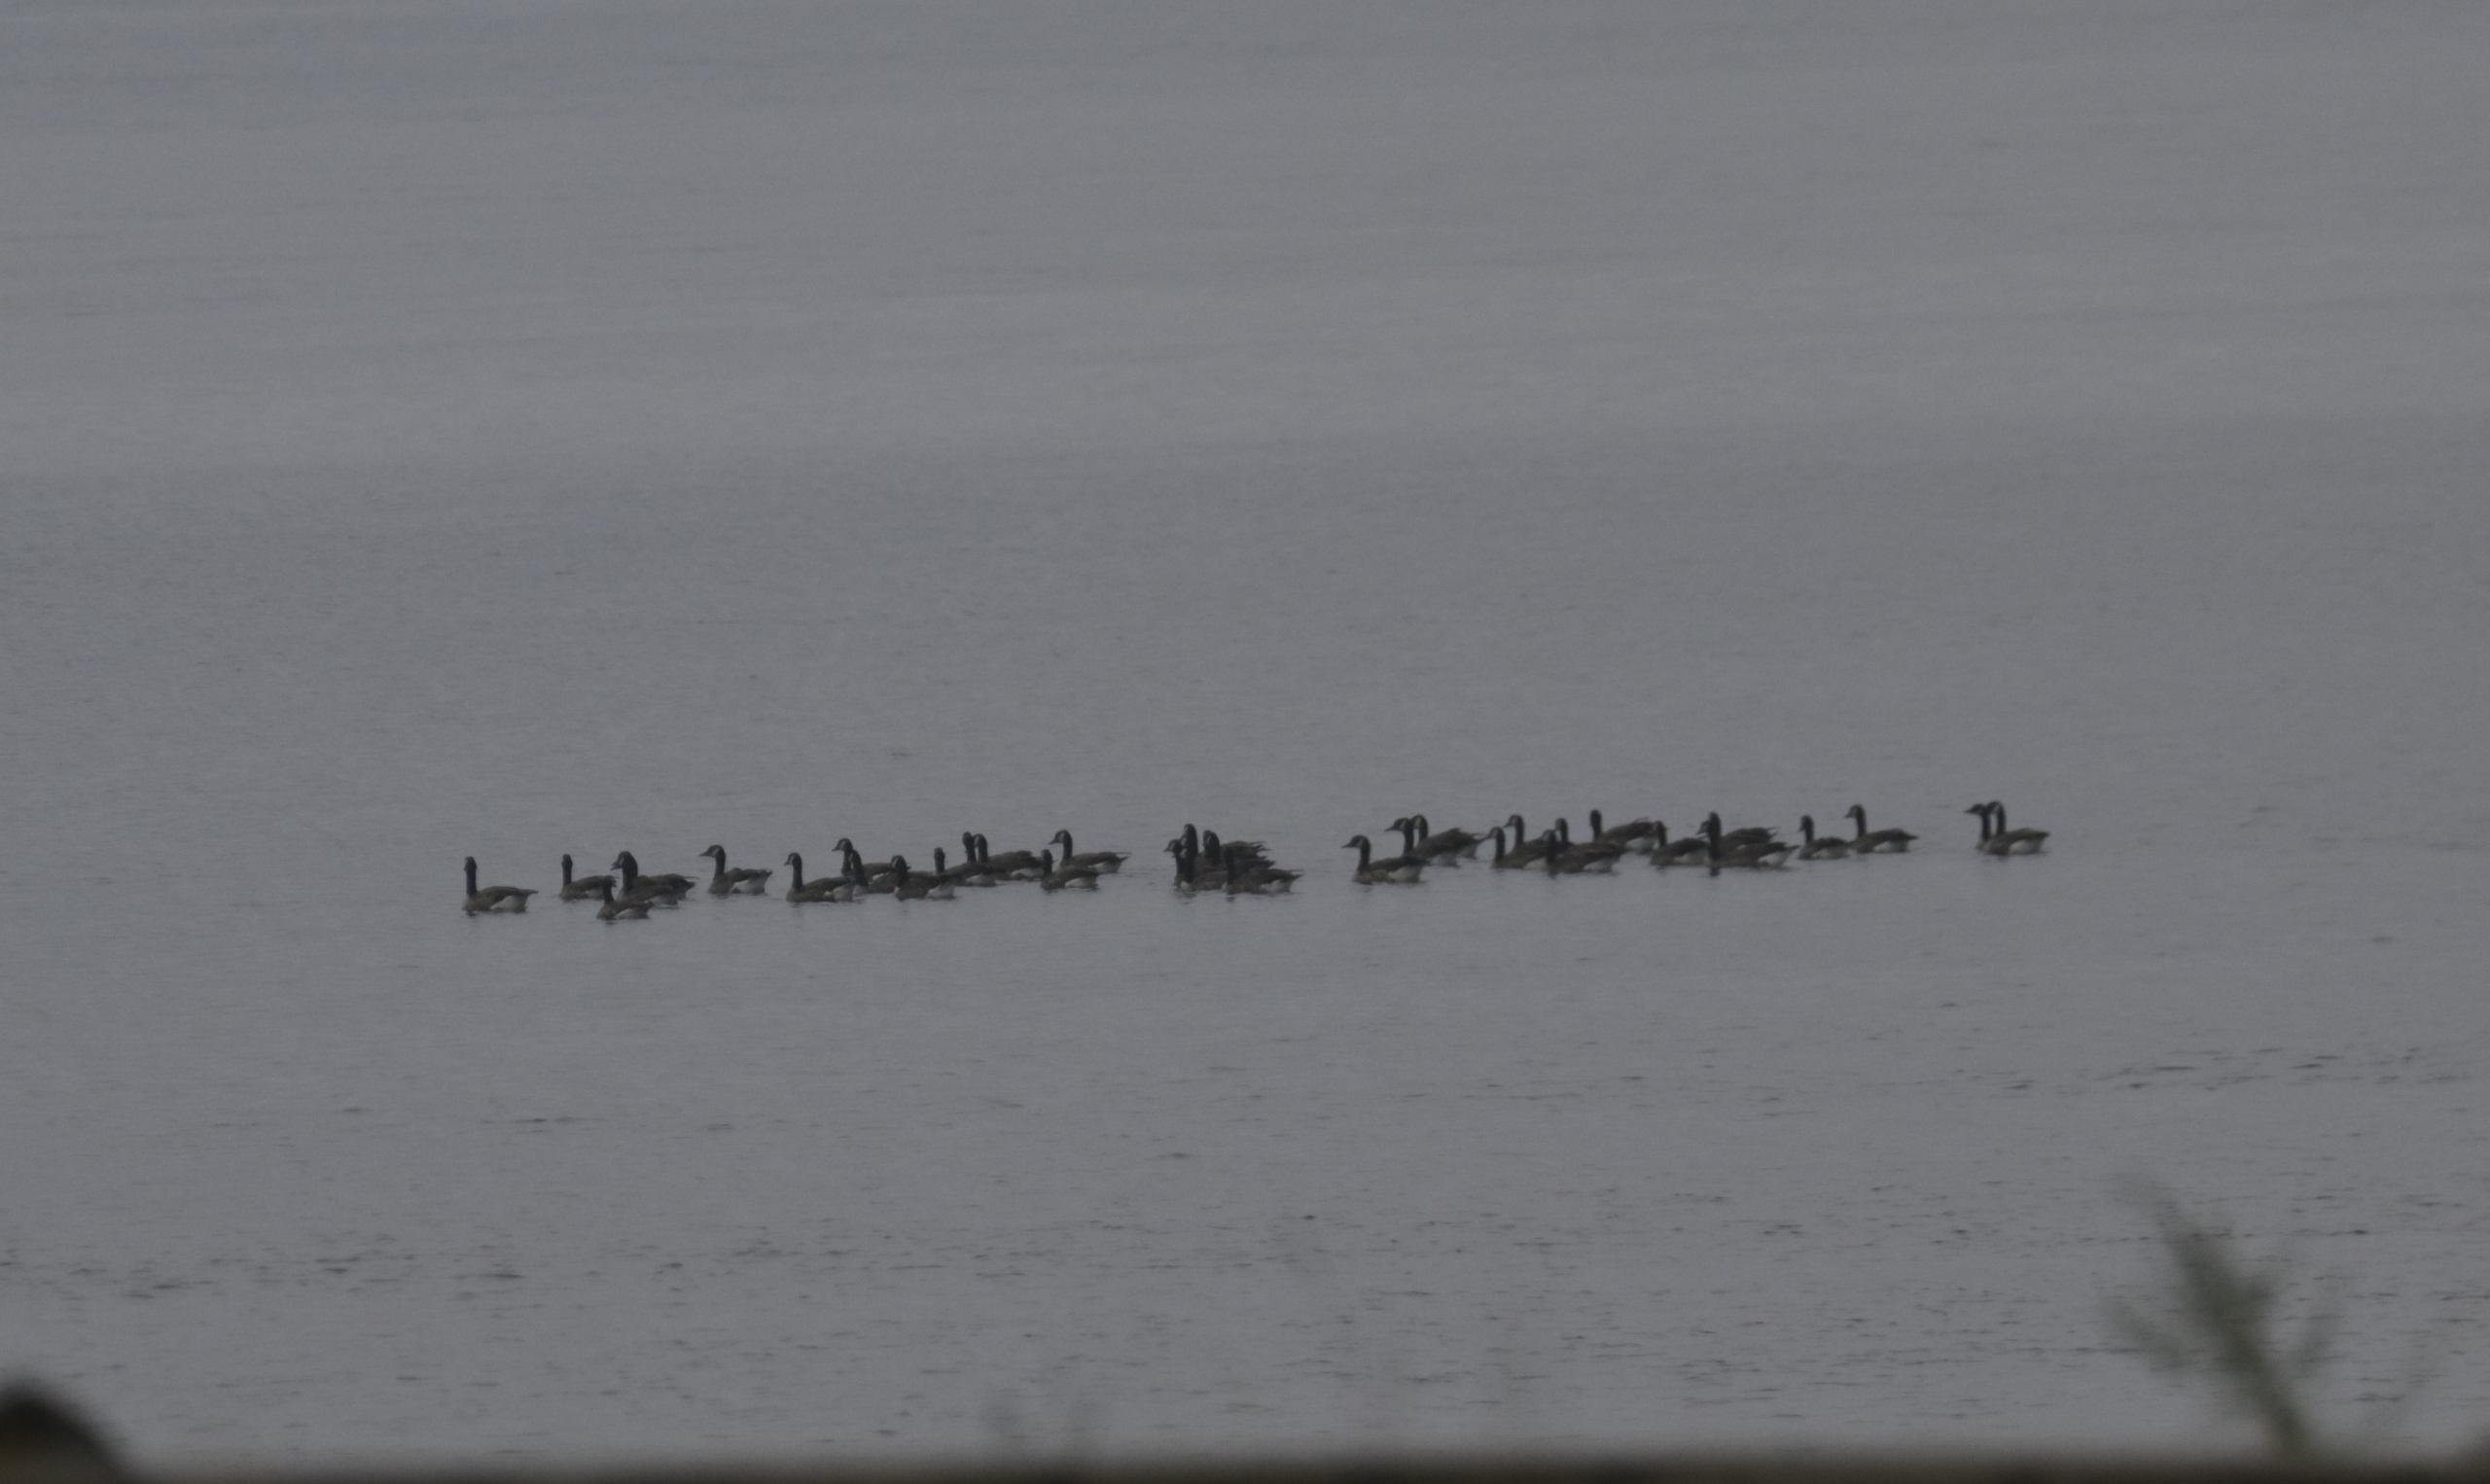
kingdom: Animalia
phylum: Chordata
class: Aves
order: Anseriformes
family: Anatidae
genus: Branta
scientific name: Branta canadensis
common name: Canadagås
